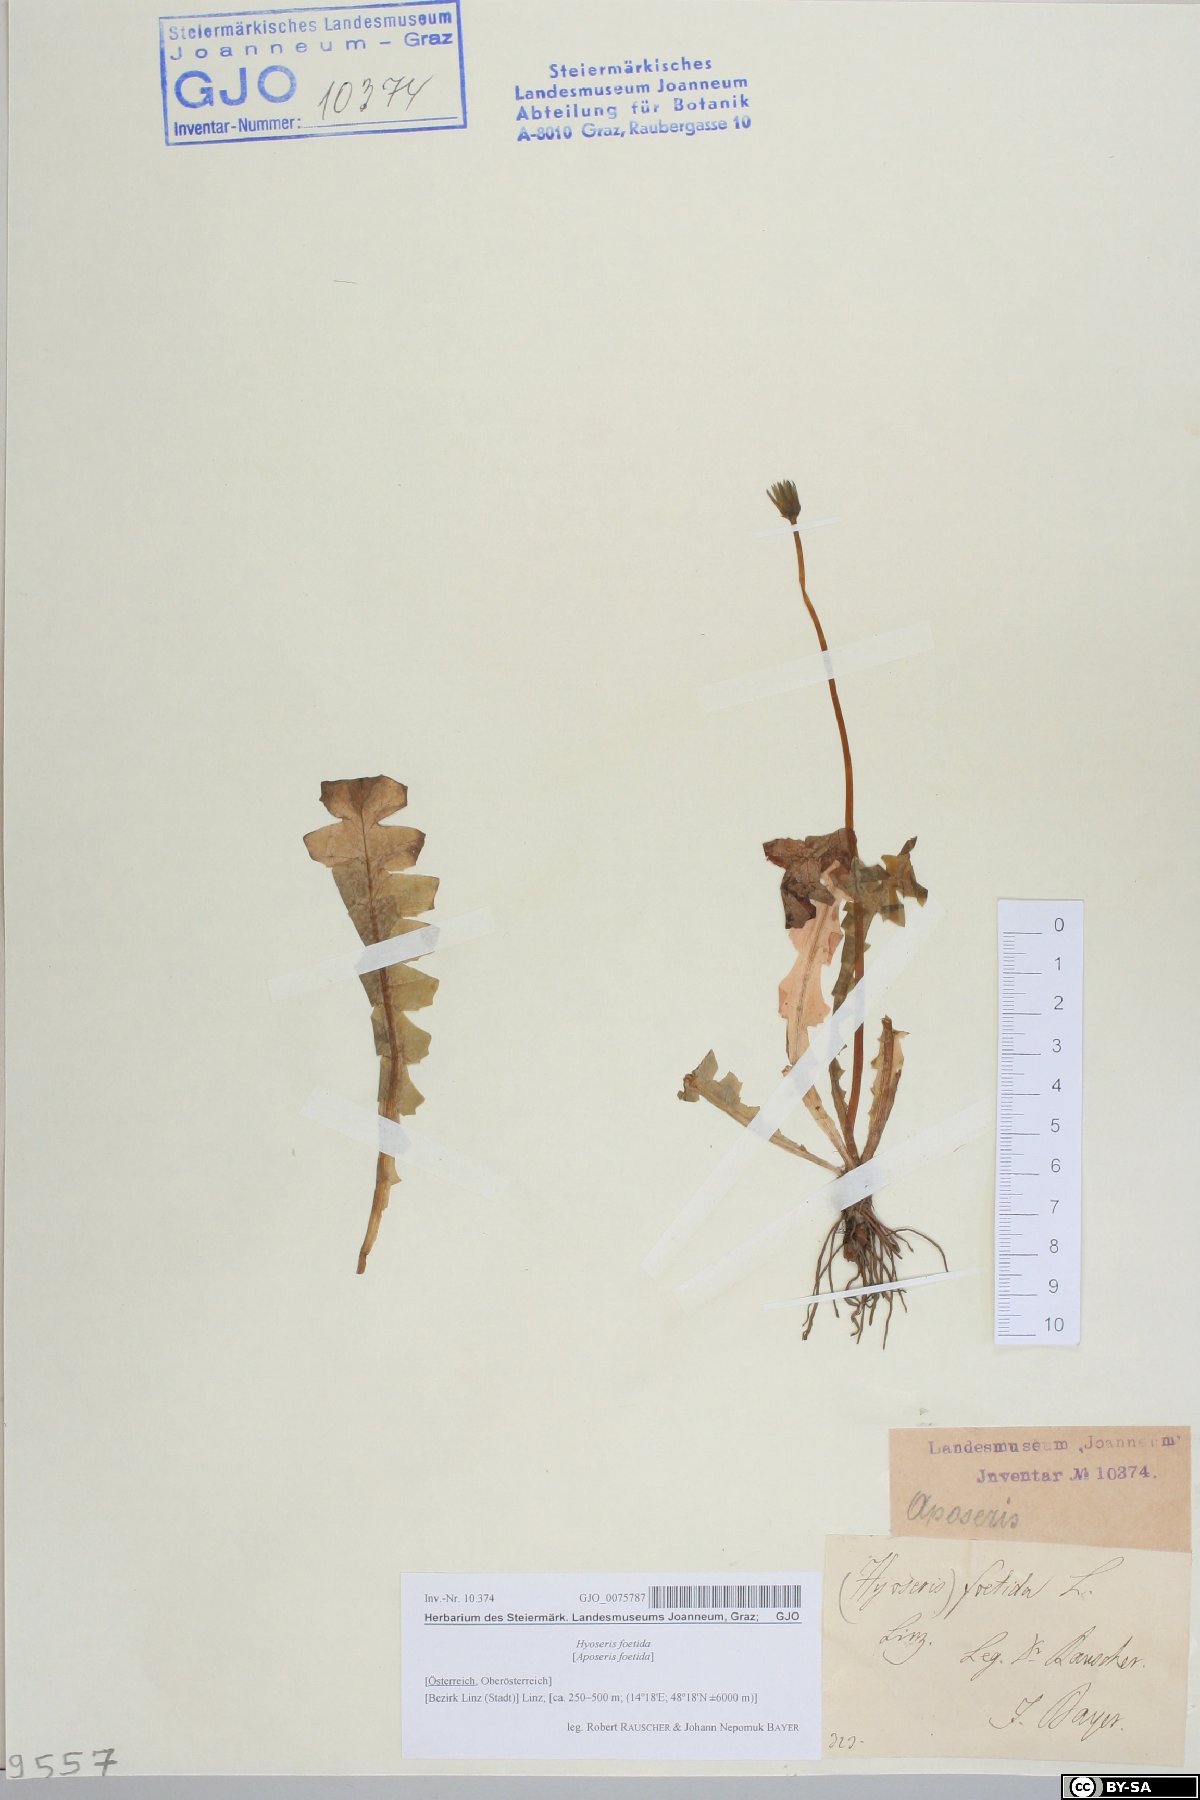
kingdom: Plantae
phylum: Tracheophyta
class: Magnoliopsida
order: Asterales
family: Asteraceae
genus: Aposeris
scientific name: Aposeris foetida
